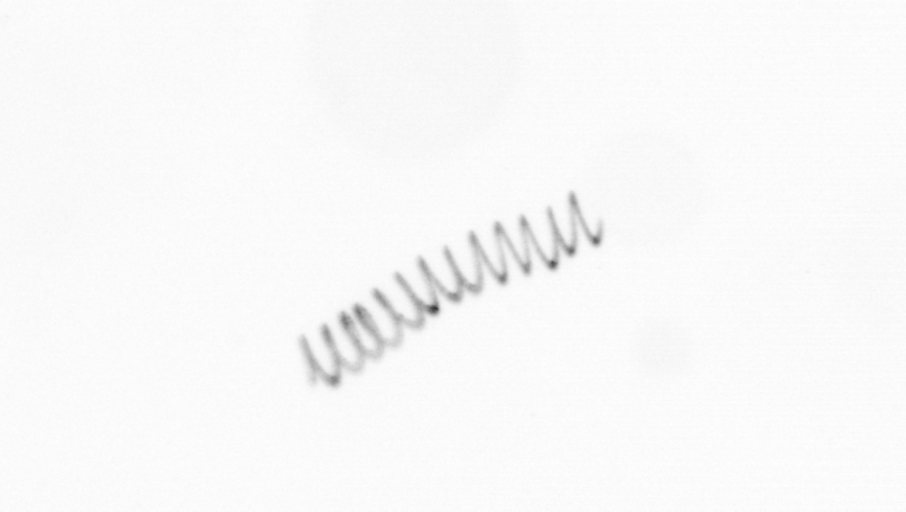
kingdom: Chromista
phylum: Ochrophyta
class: Bacillariophyceae
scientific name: Bacillariophyceae
